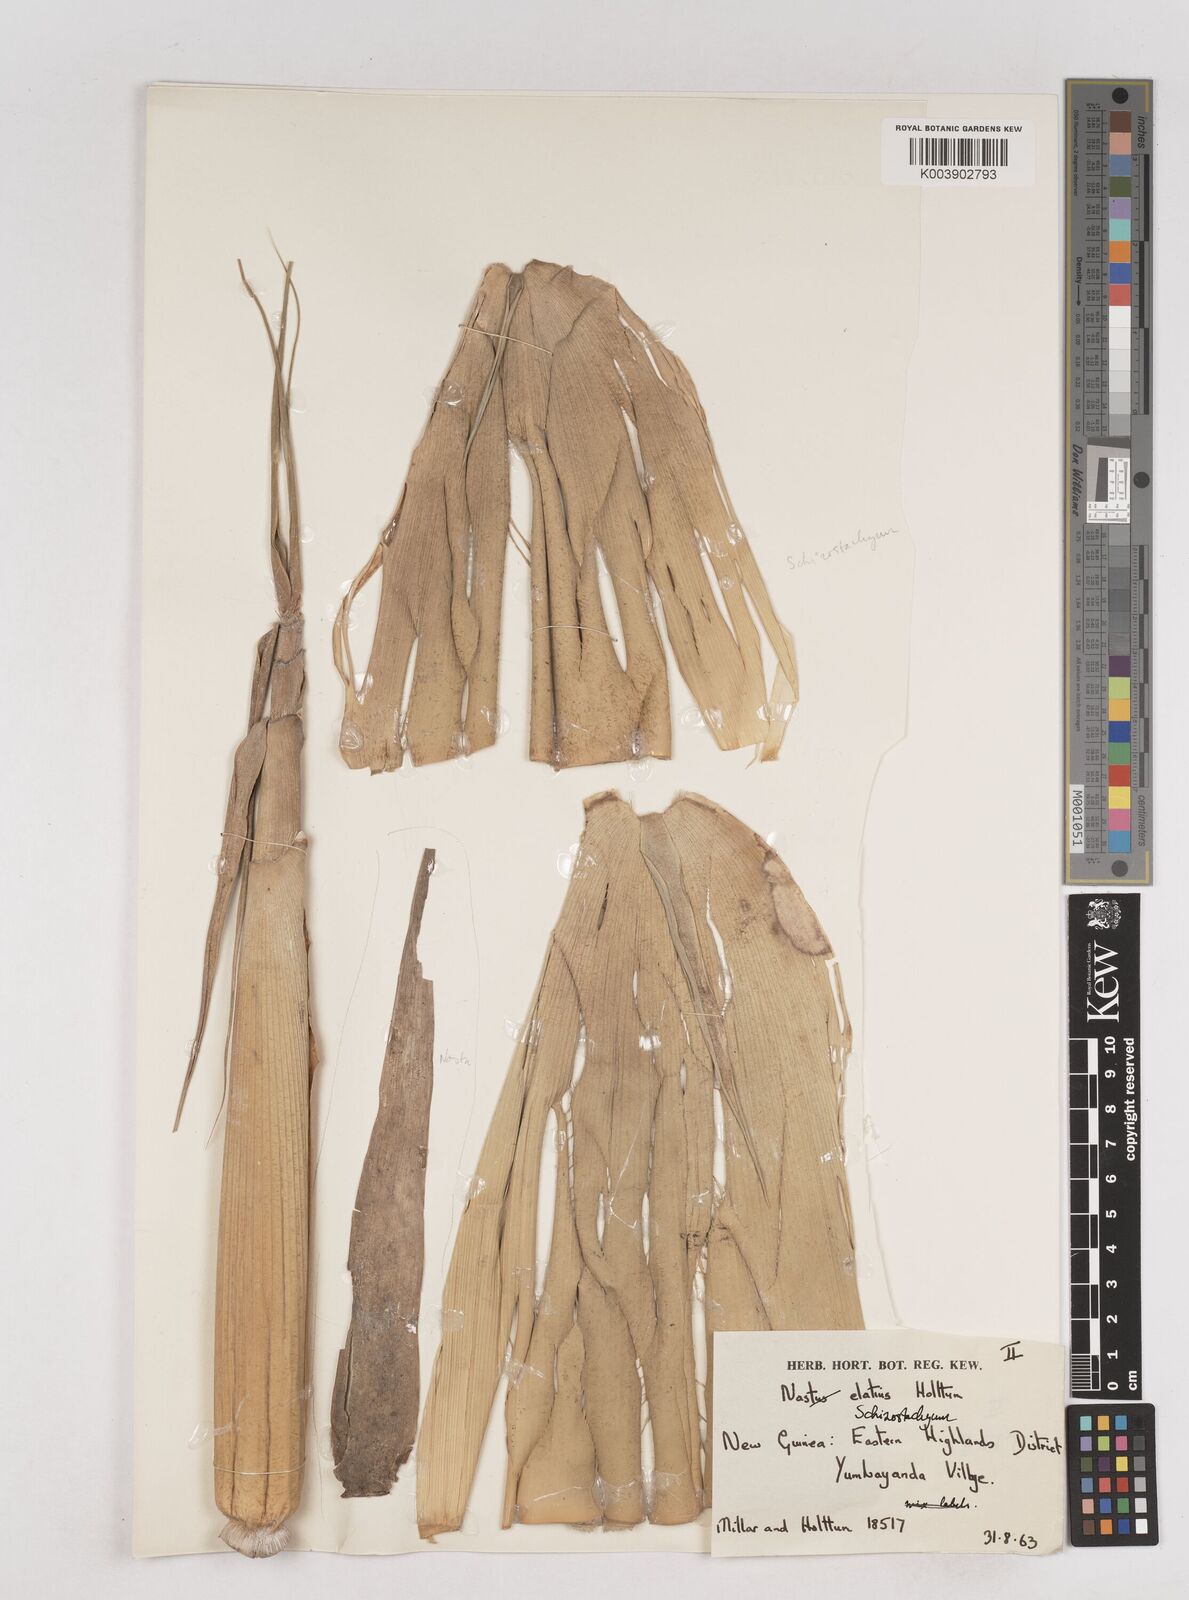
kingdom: Plantae
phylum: Tracheophyta
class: Liliopsida
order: Poales
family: Poaceae
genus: Schizostachyum
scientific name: Schizostachyum
